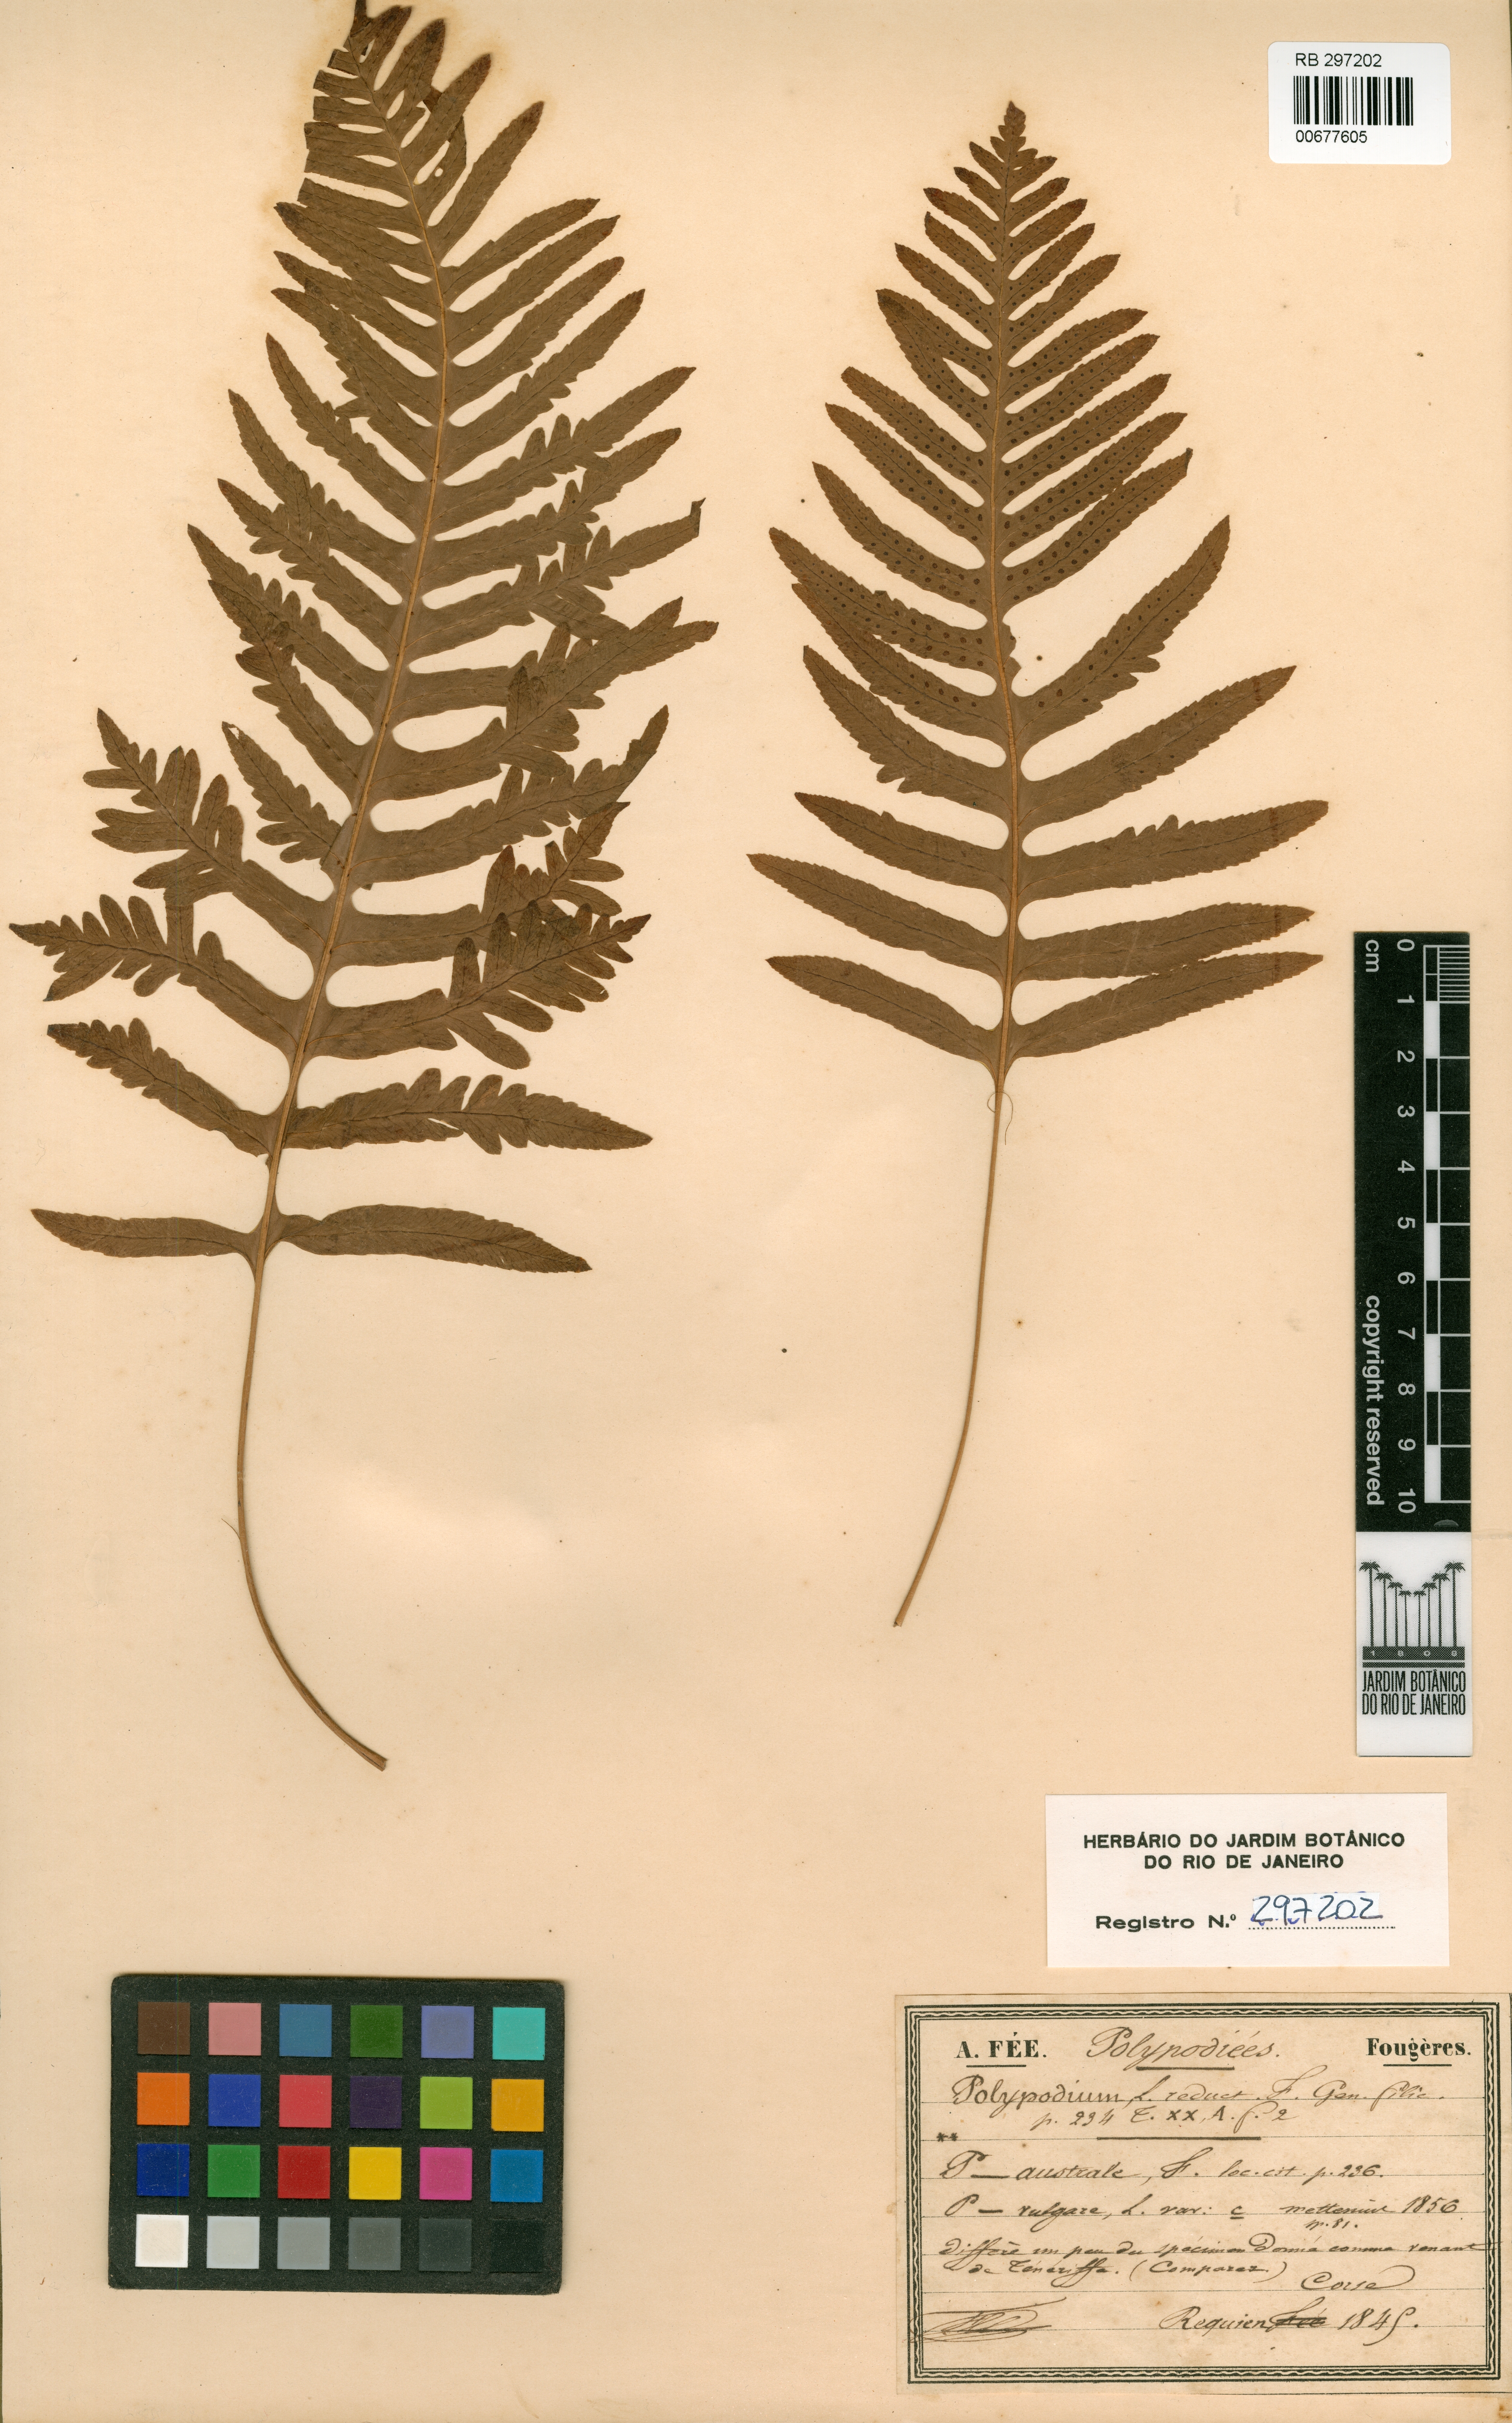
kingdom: Plantae
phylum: Tracheophyta
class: Polypodiopsida
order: Polypodiales
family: Polypodiaceae
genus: Polypodium
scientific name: Polypodium cambricum
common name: Southern polypody
